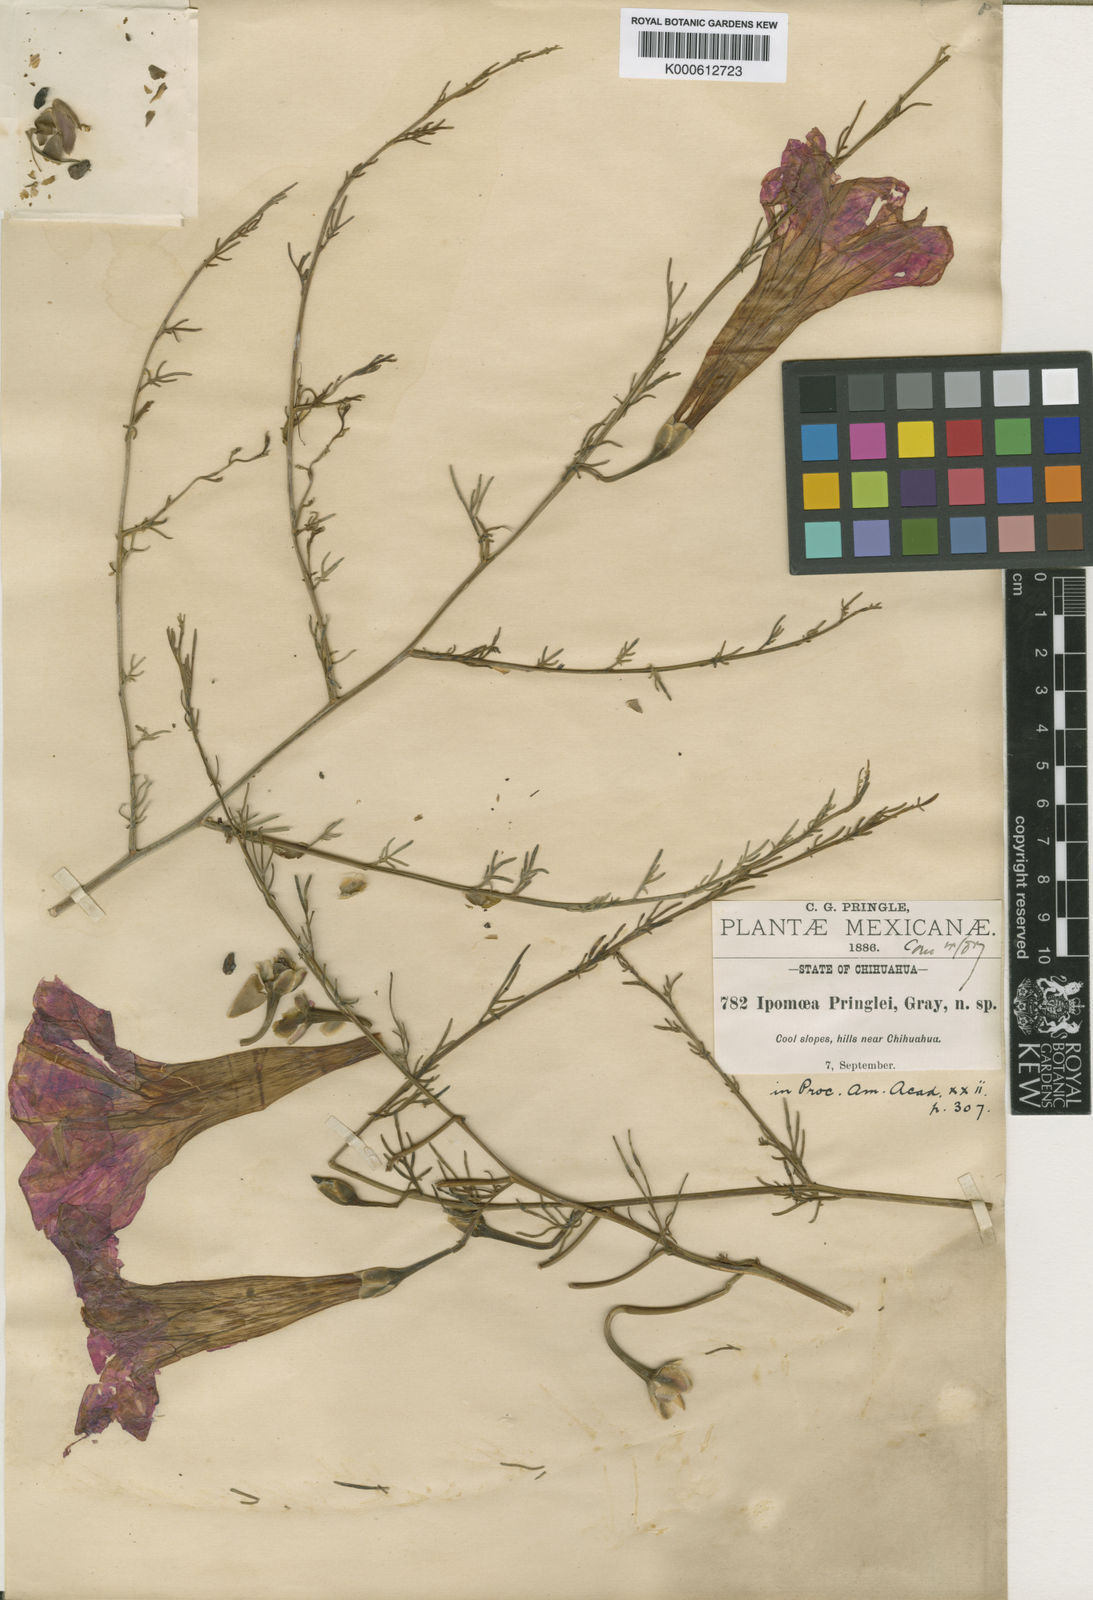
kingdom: Plantae
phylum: Tracheophyta
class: Magnoliopsida
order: Solanales
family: Convolvulaceae
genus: Ipomoea
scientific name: Ipomoea sescossiana
